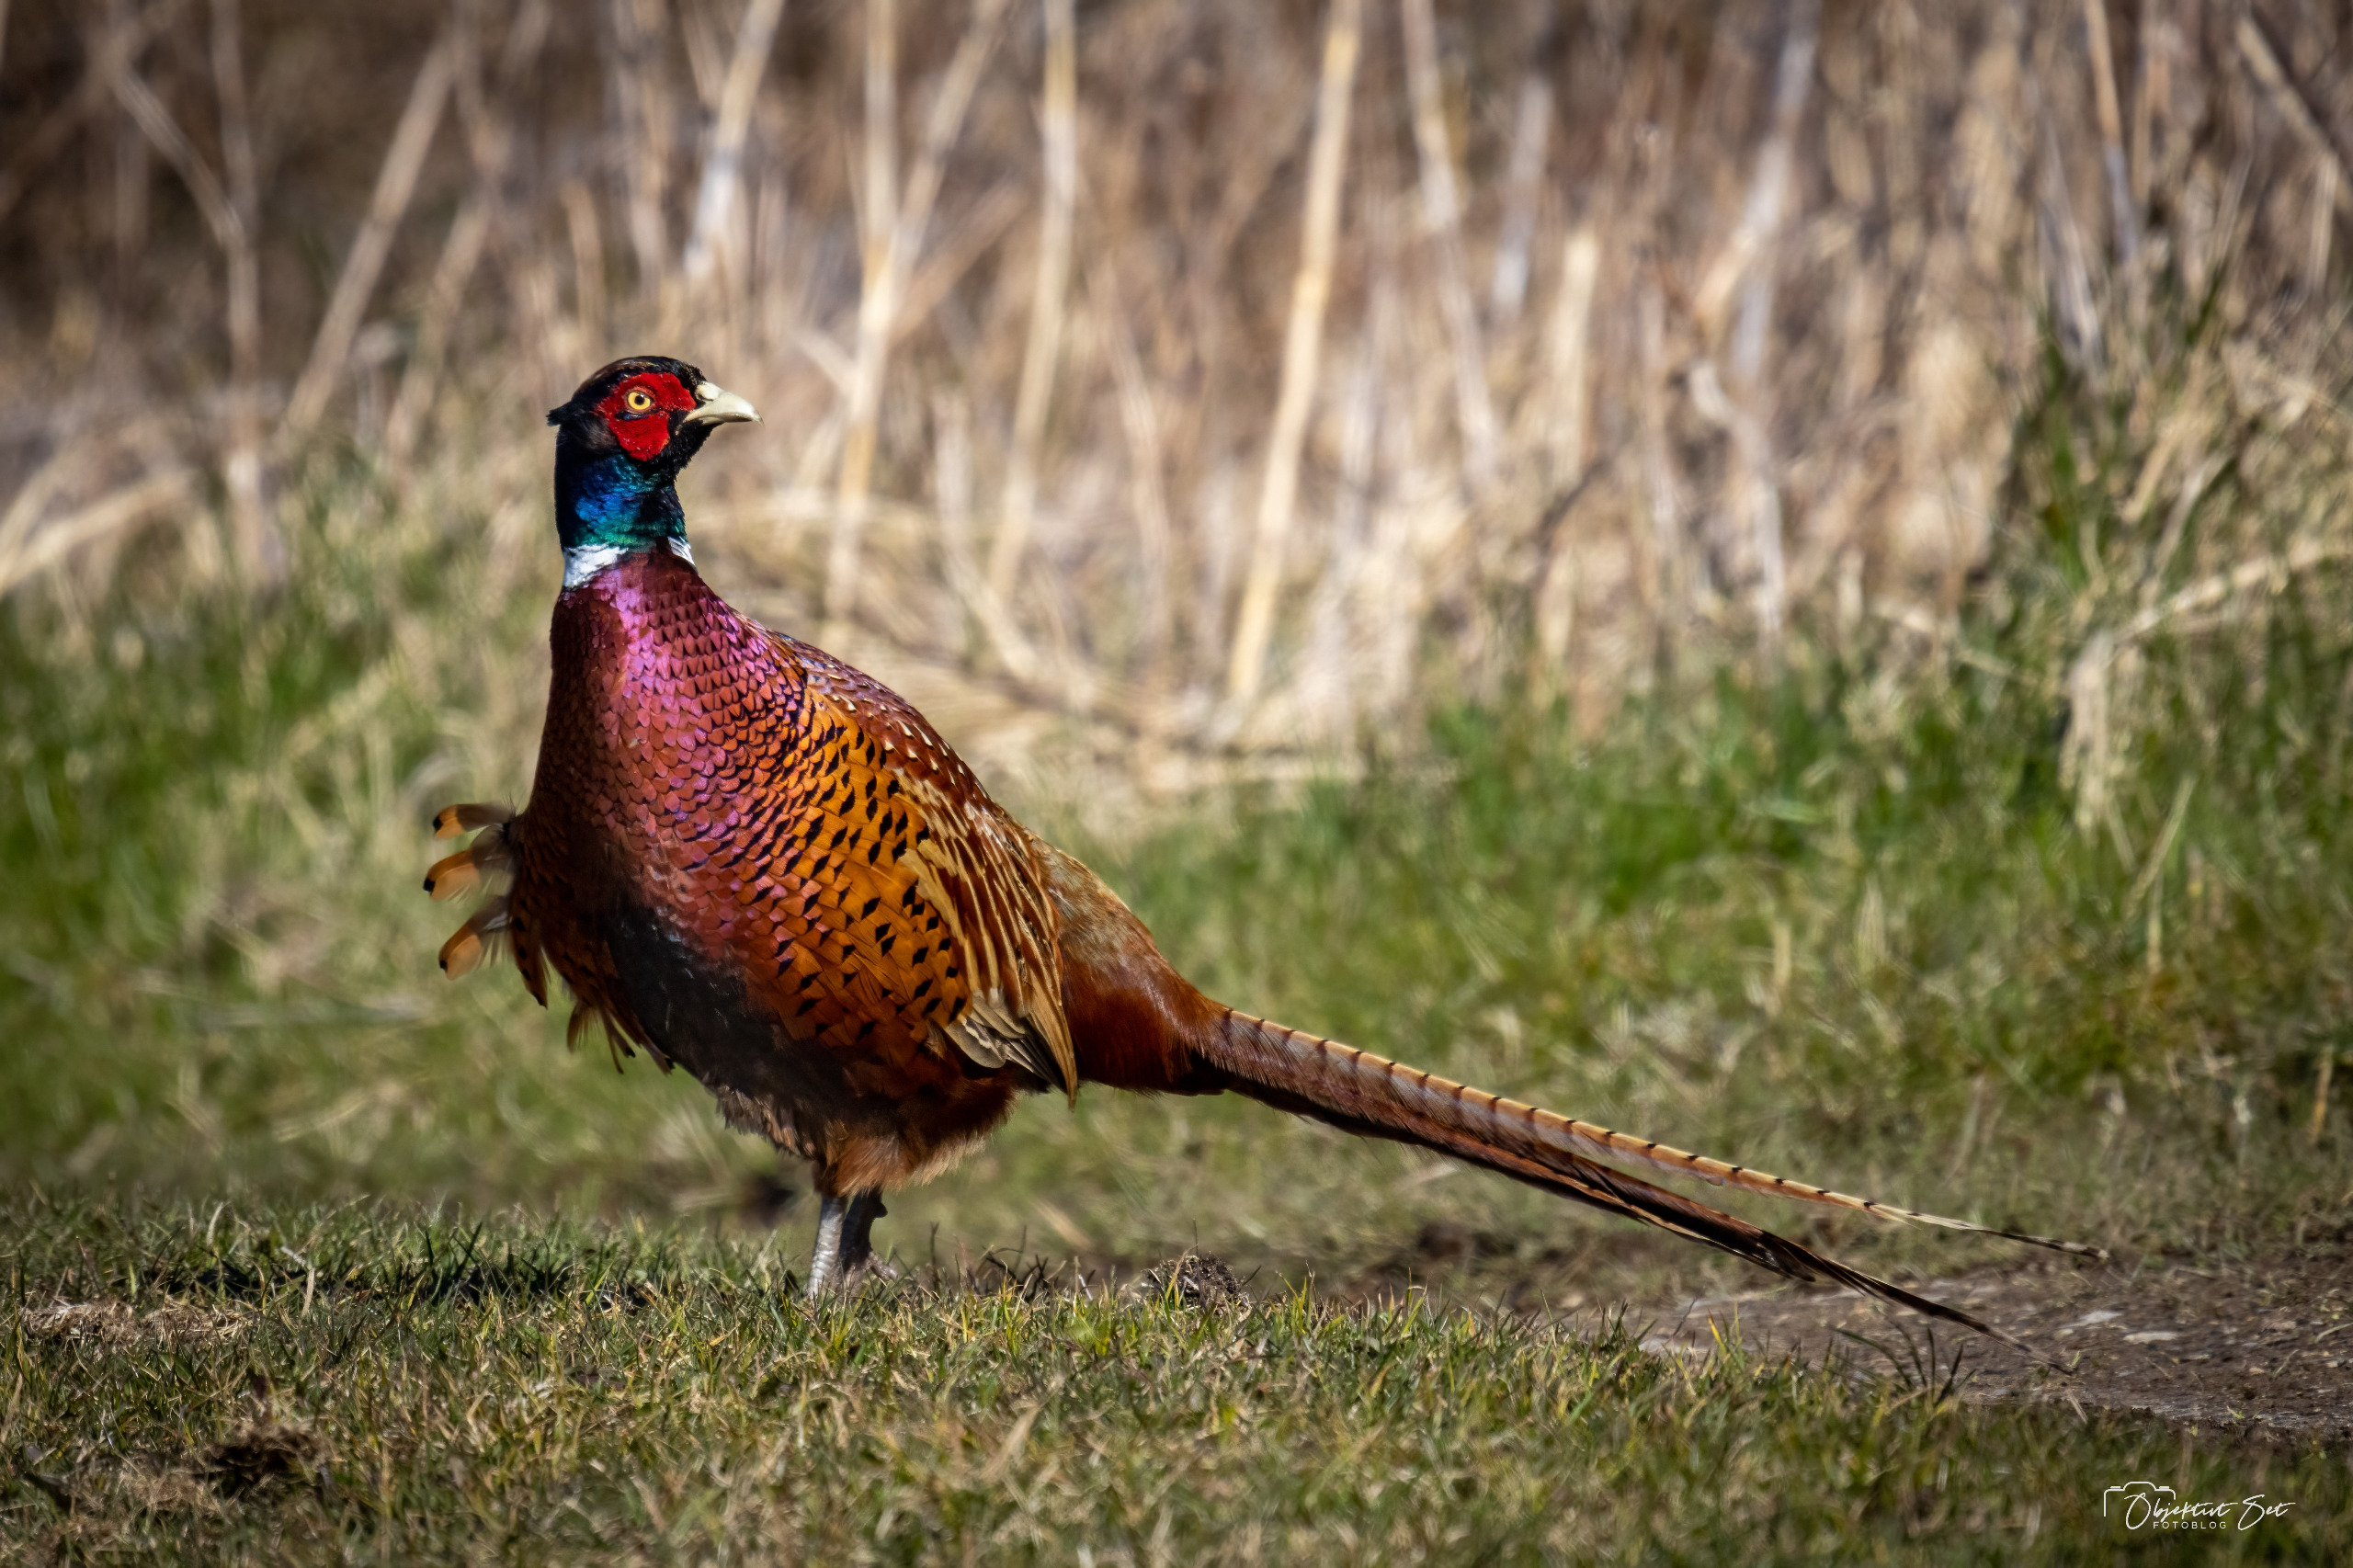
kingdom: Animalia
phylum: Chordata
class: Aves
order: Galliformes
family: Phasianidae
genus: Phasianus
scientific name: Phasianus colchicus
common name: Fasan
